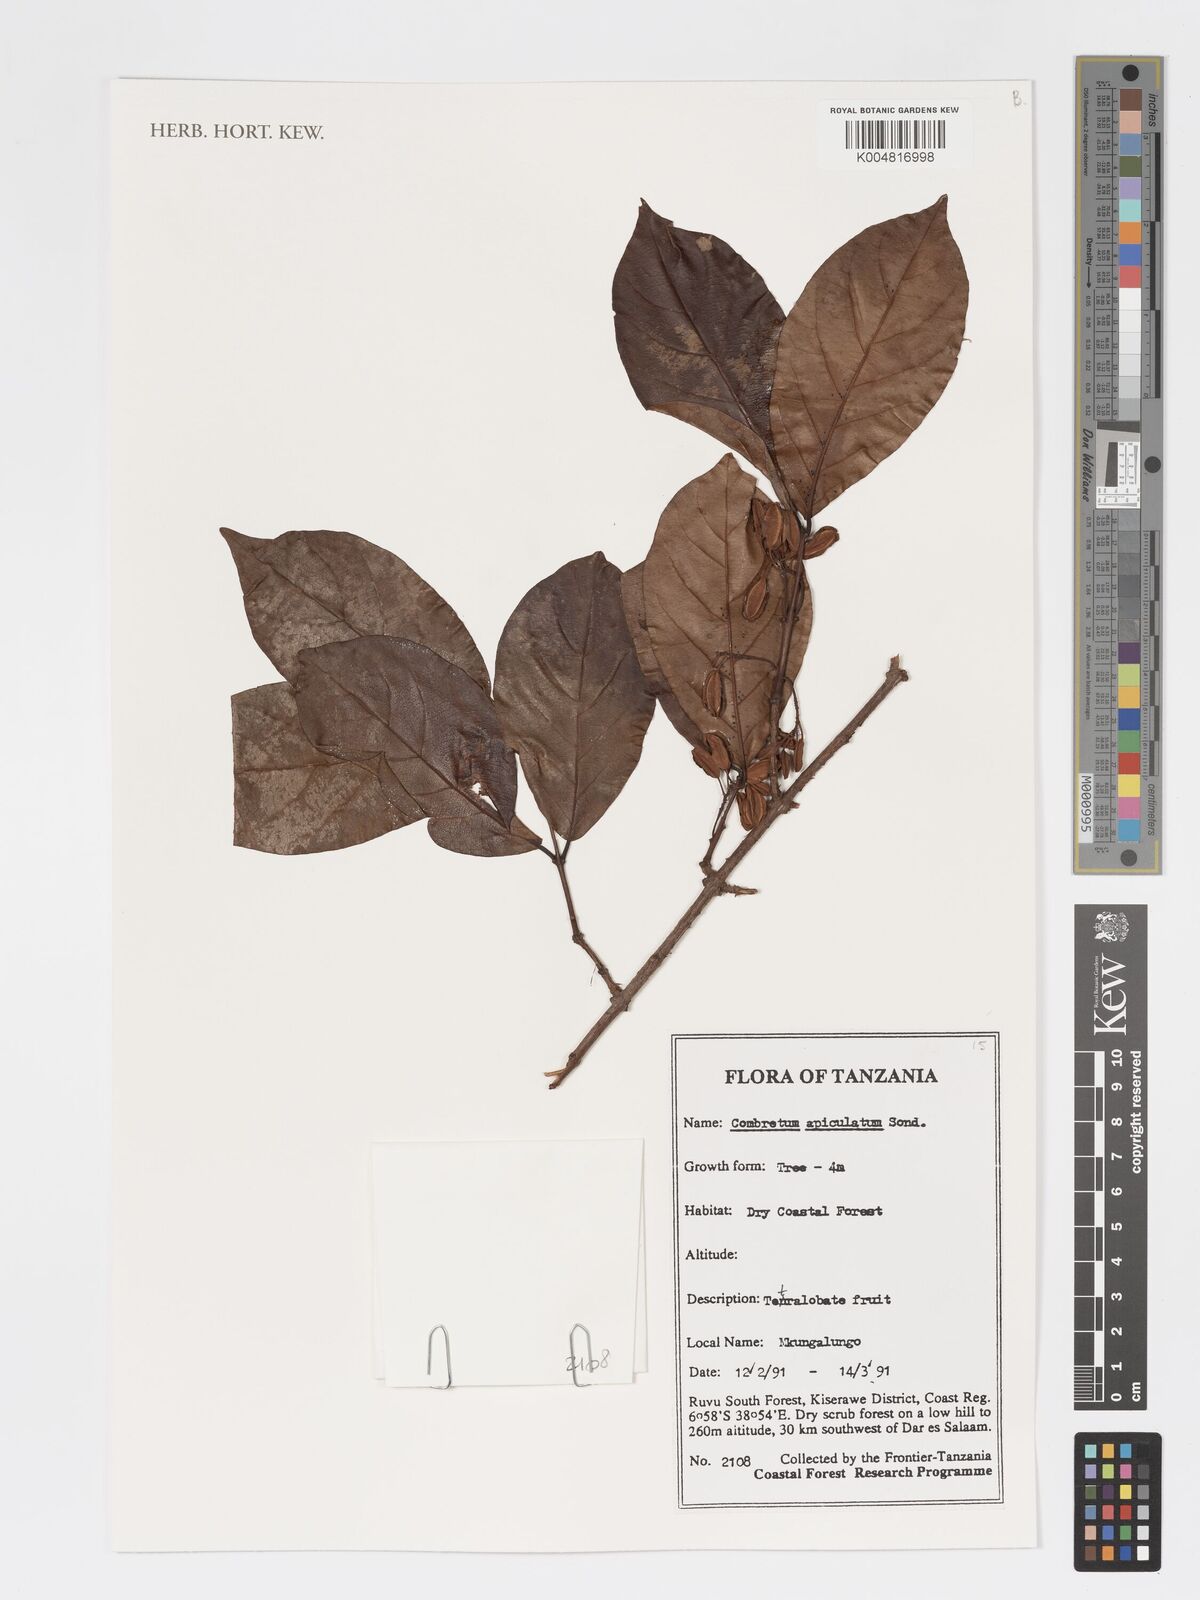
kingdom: Plantae
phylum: Tracheophyta
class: Magnoliopsida
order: Myrtales
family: Combretaceae
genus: Combretum
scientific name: Combretum apiculatum
